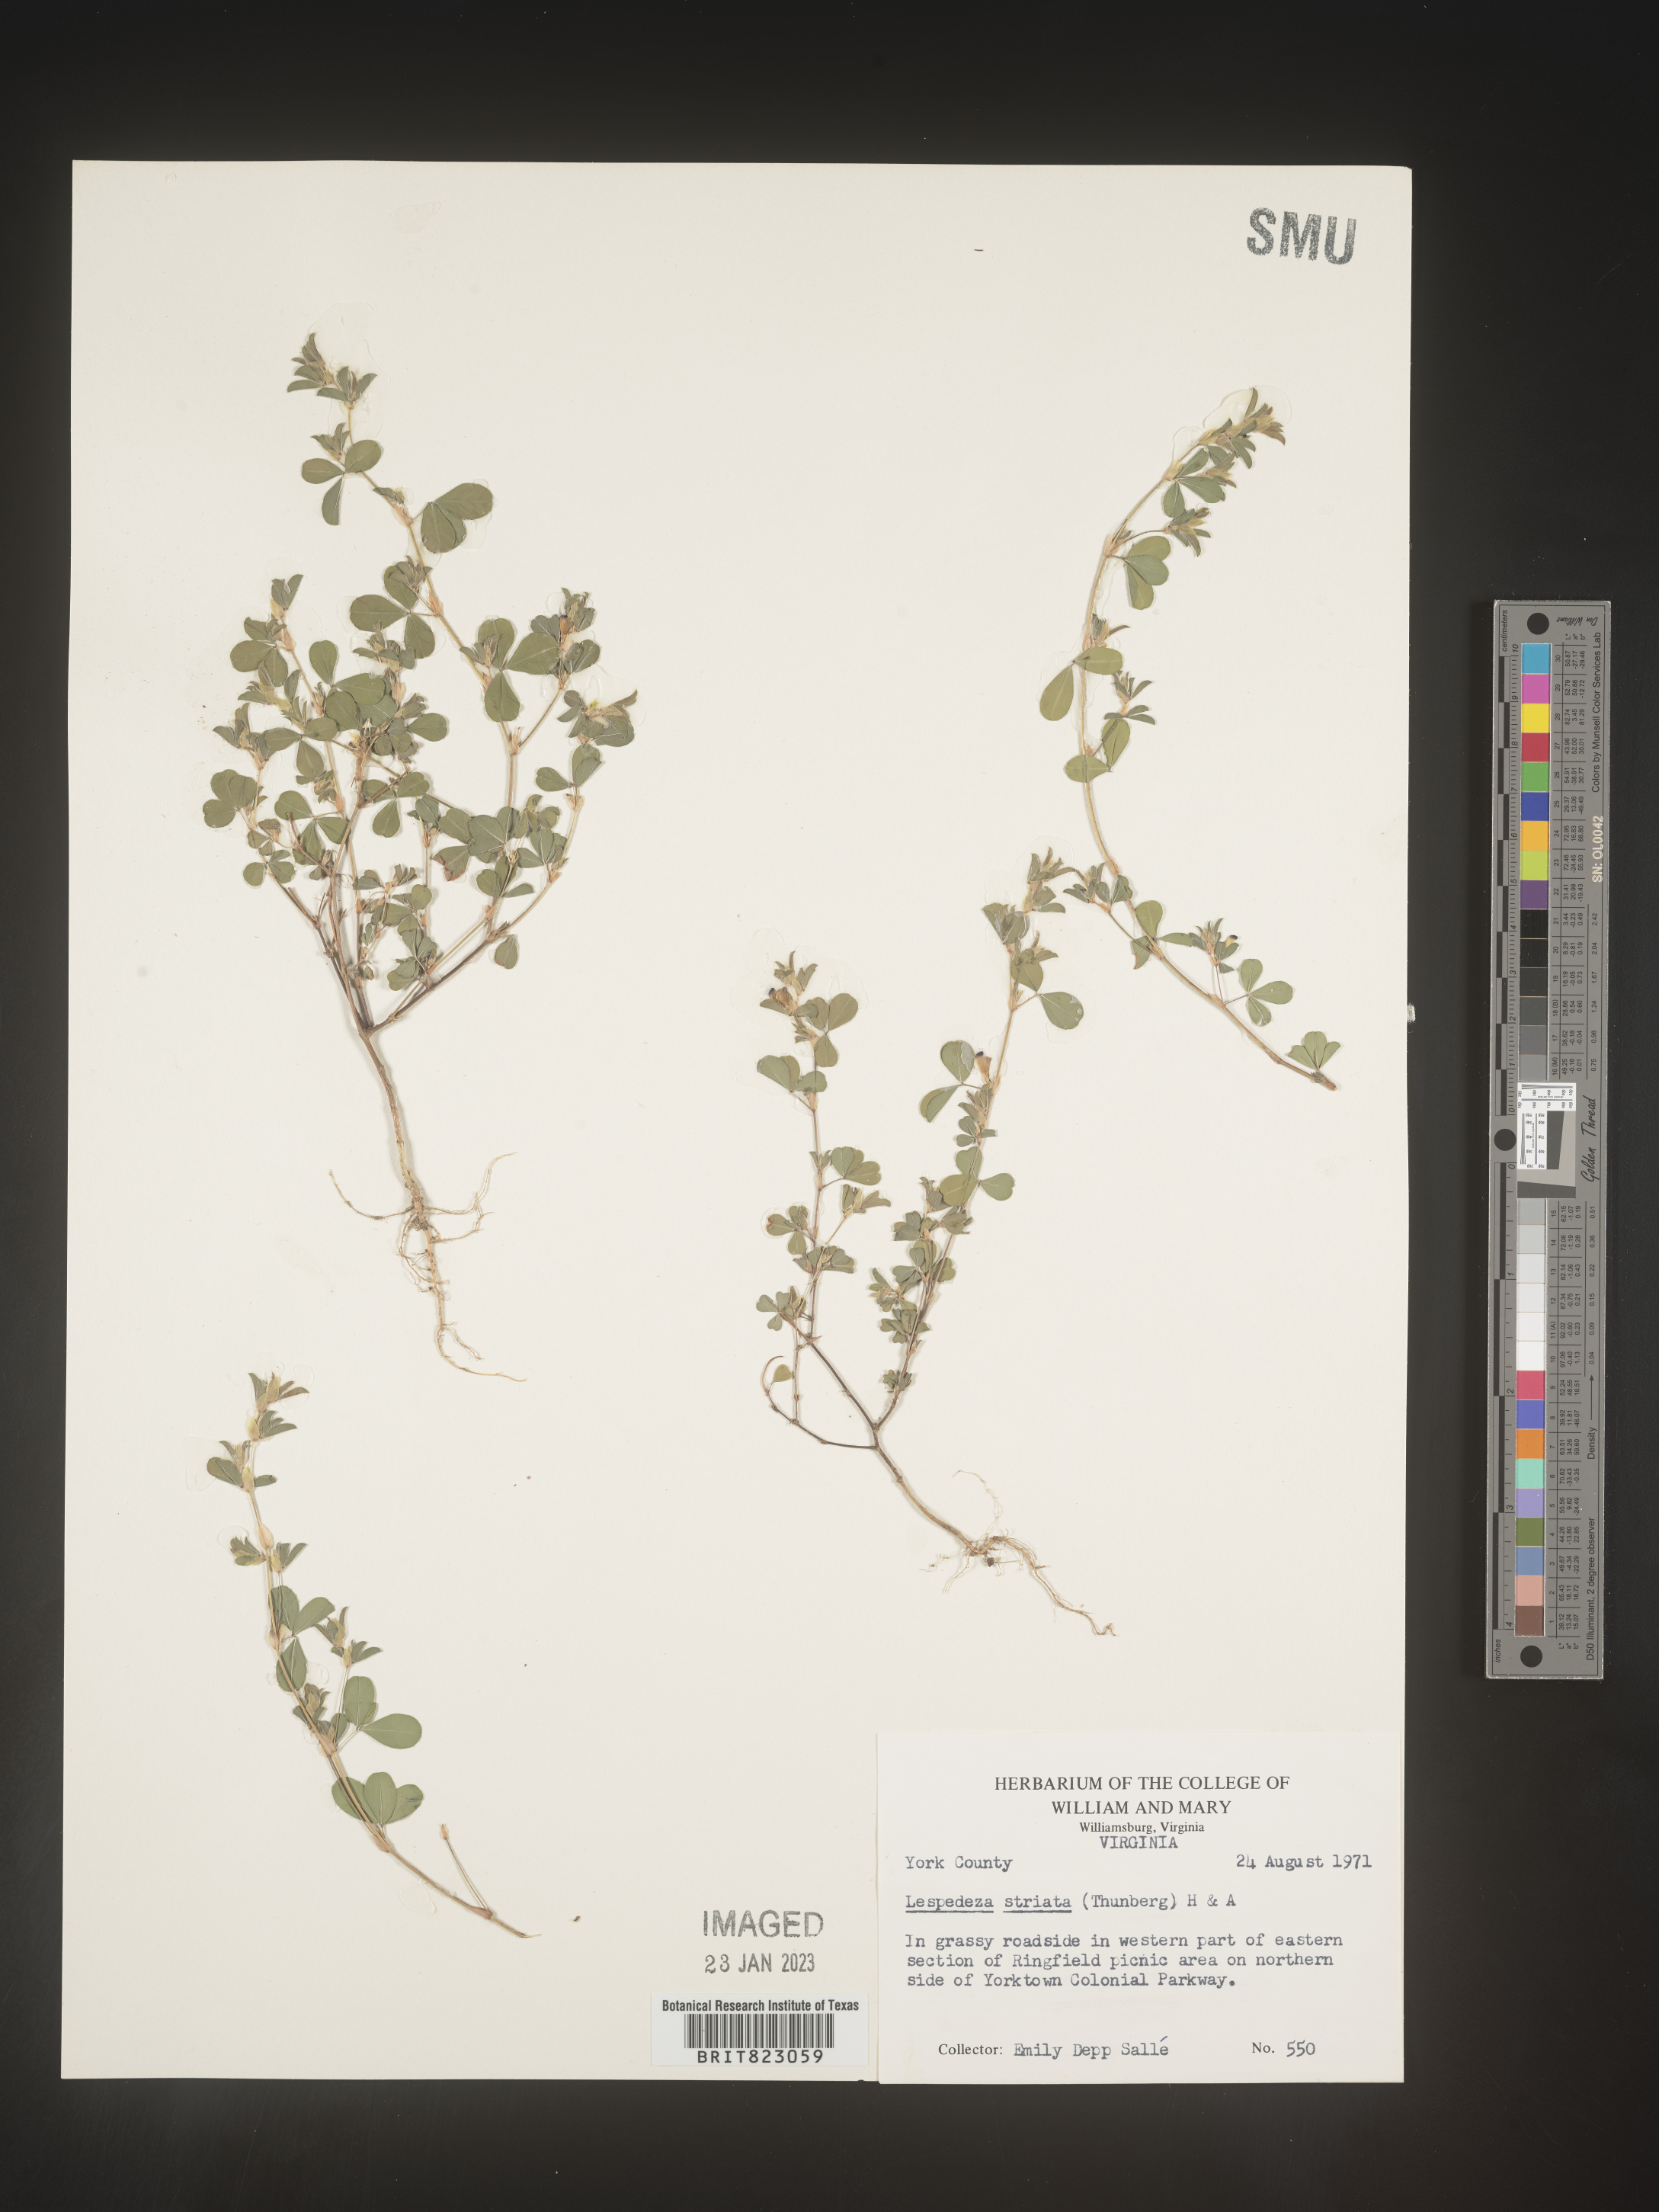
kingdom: Plantae
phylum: Tracheophyta
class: Magnoliopsida
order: Fabales
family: Fabaceae
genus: Kummerowia
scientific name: Kummerowia striata
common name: Japanese clover
